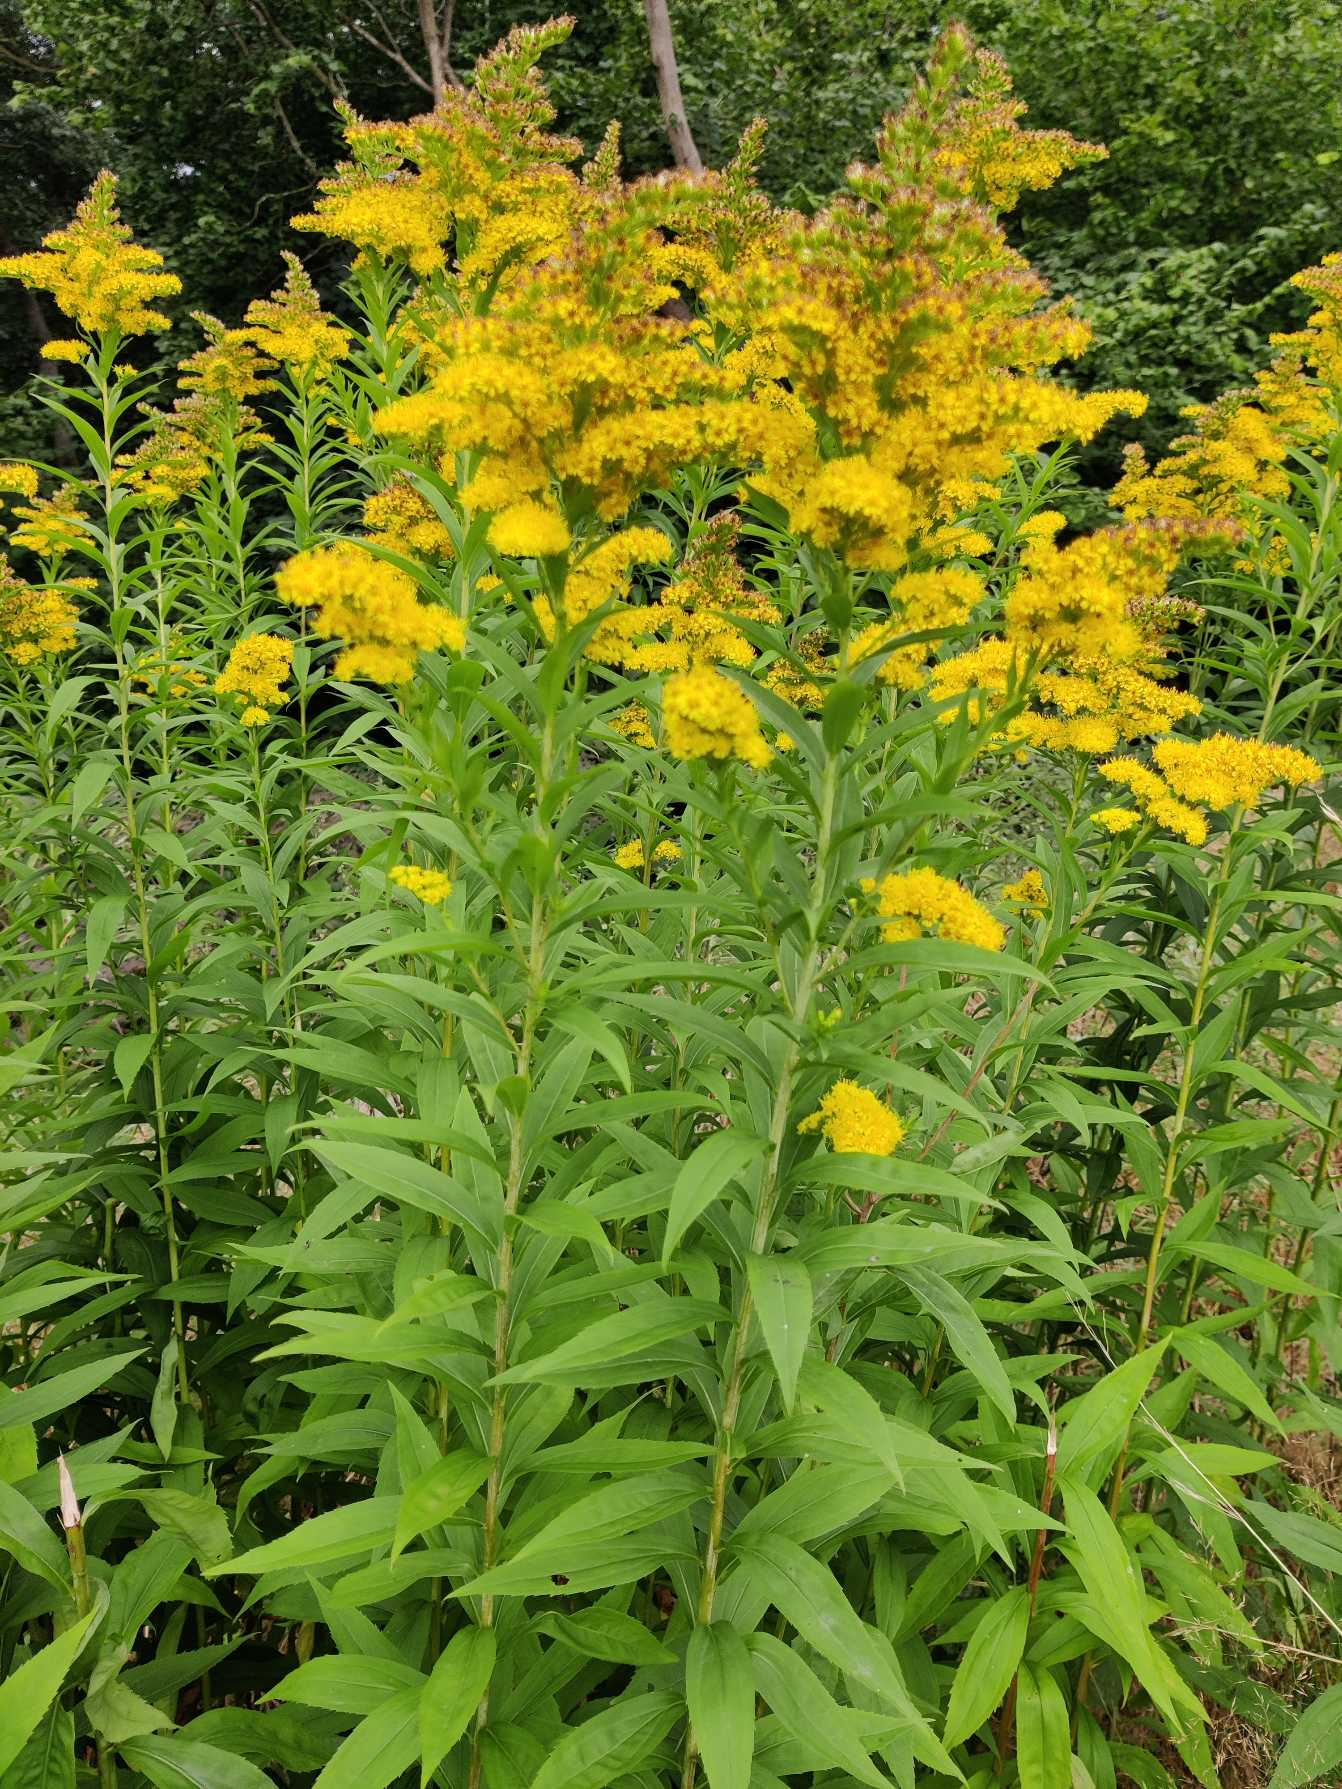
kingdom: Plantae
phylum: Tracheophyta
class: Magnoliopsida
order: Asterales
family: Asteraceae
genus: Solidago
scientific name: Solidago gigantea
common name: Sildig gyldenris
